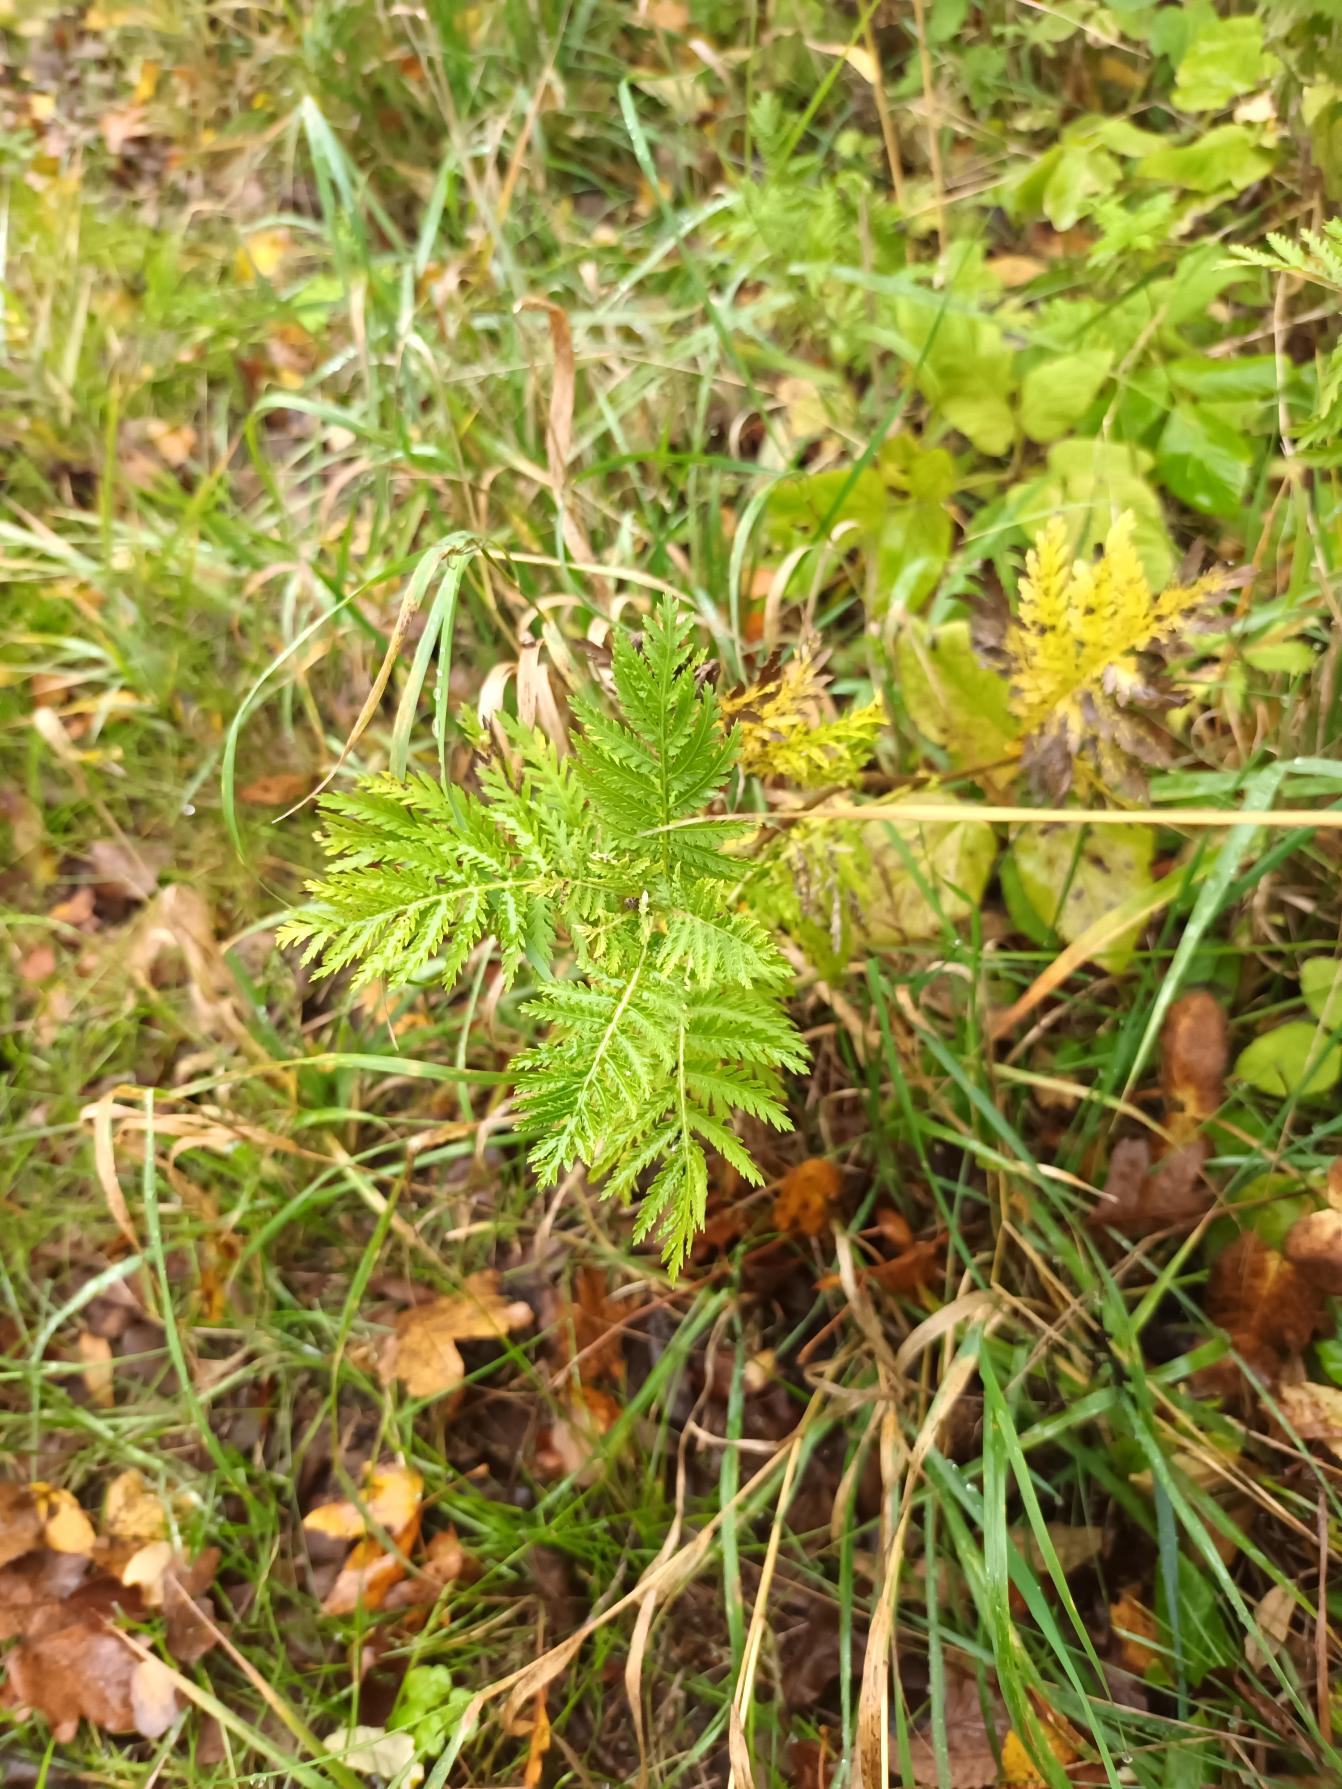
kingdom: Plantae
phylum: Tracheophyta
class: Magnoliopsida
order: Asterales
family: Asteraceae
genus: Tanacetum
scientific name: Tanacetum vulgare
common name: Rejnfan
